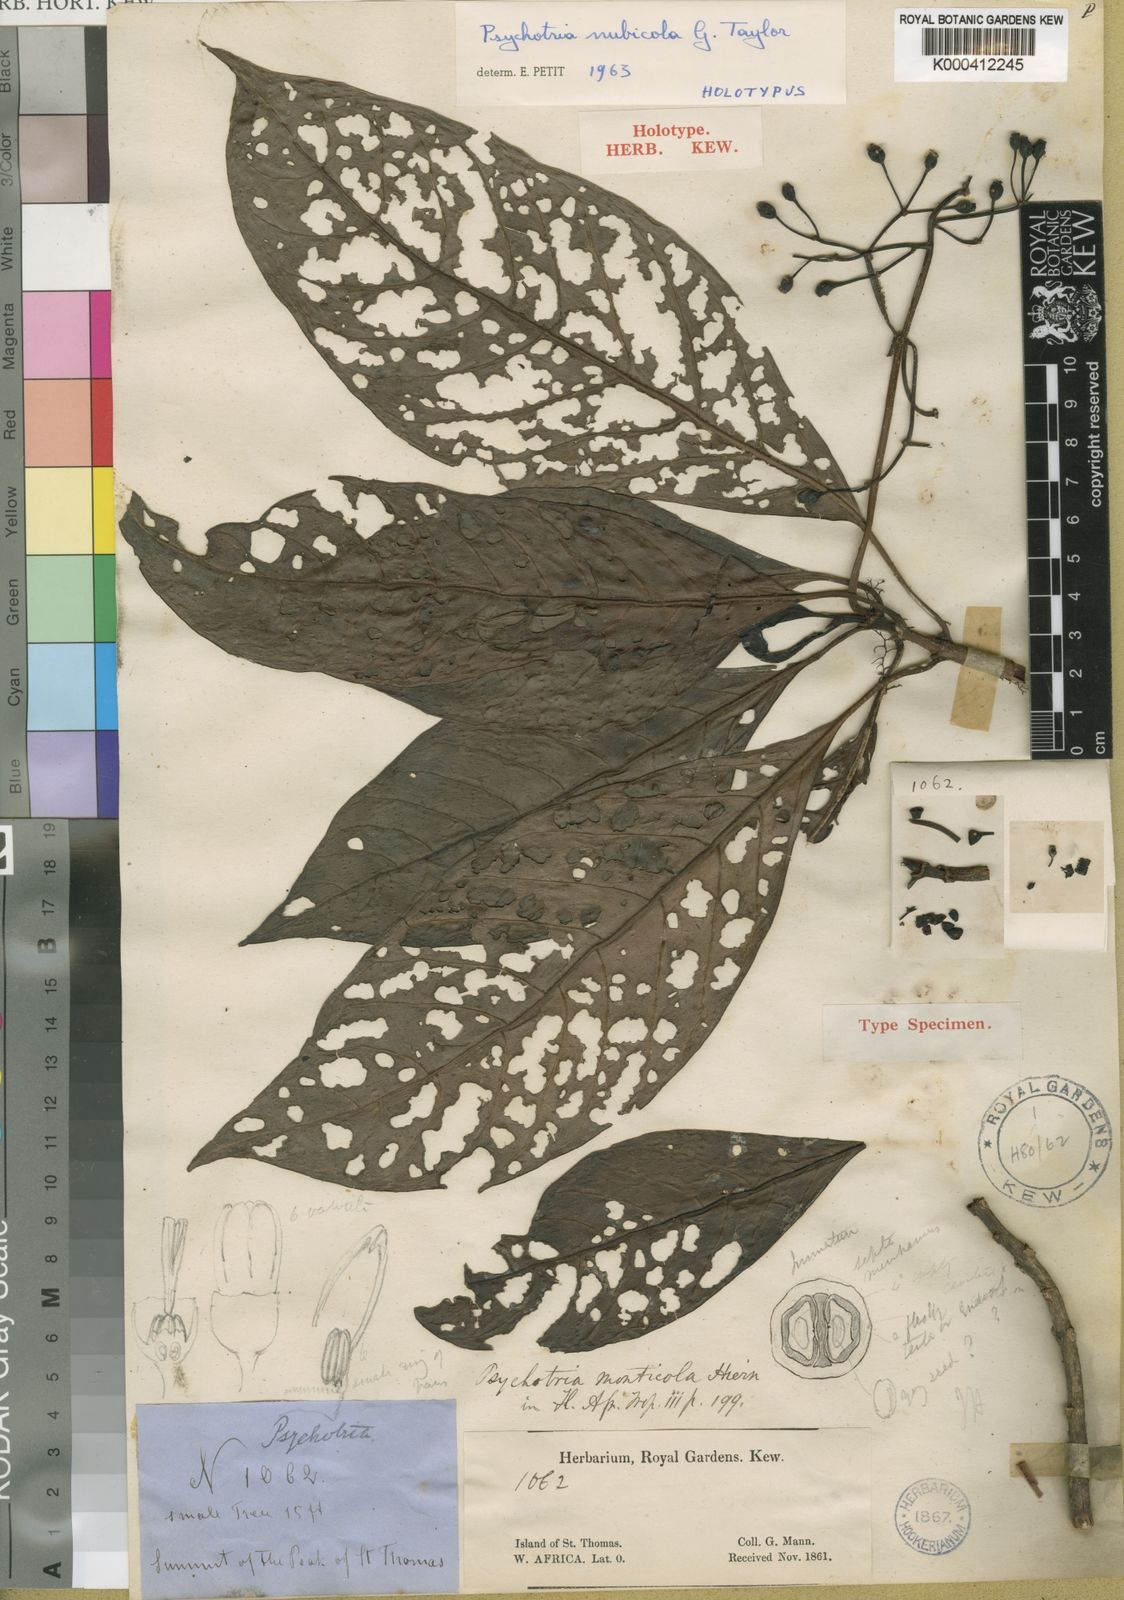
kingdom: Plantae
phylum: Tracheophyta
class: Magnoliopsida
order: Gentianales
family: Rubiaceae
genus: Psychotria
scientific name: Psychotria nubicola
